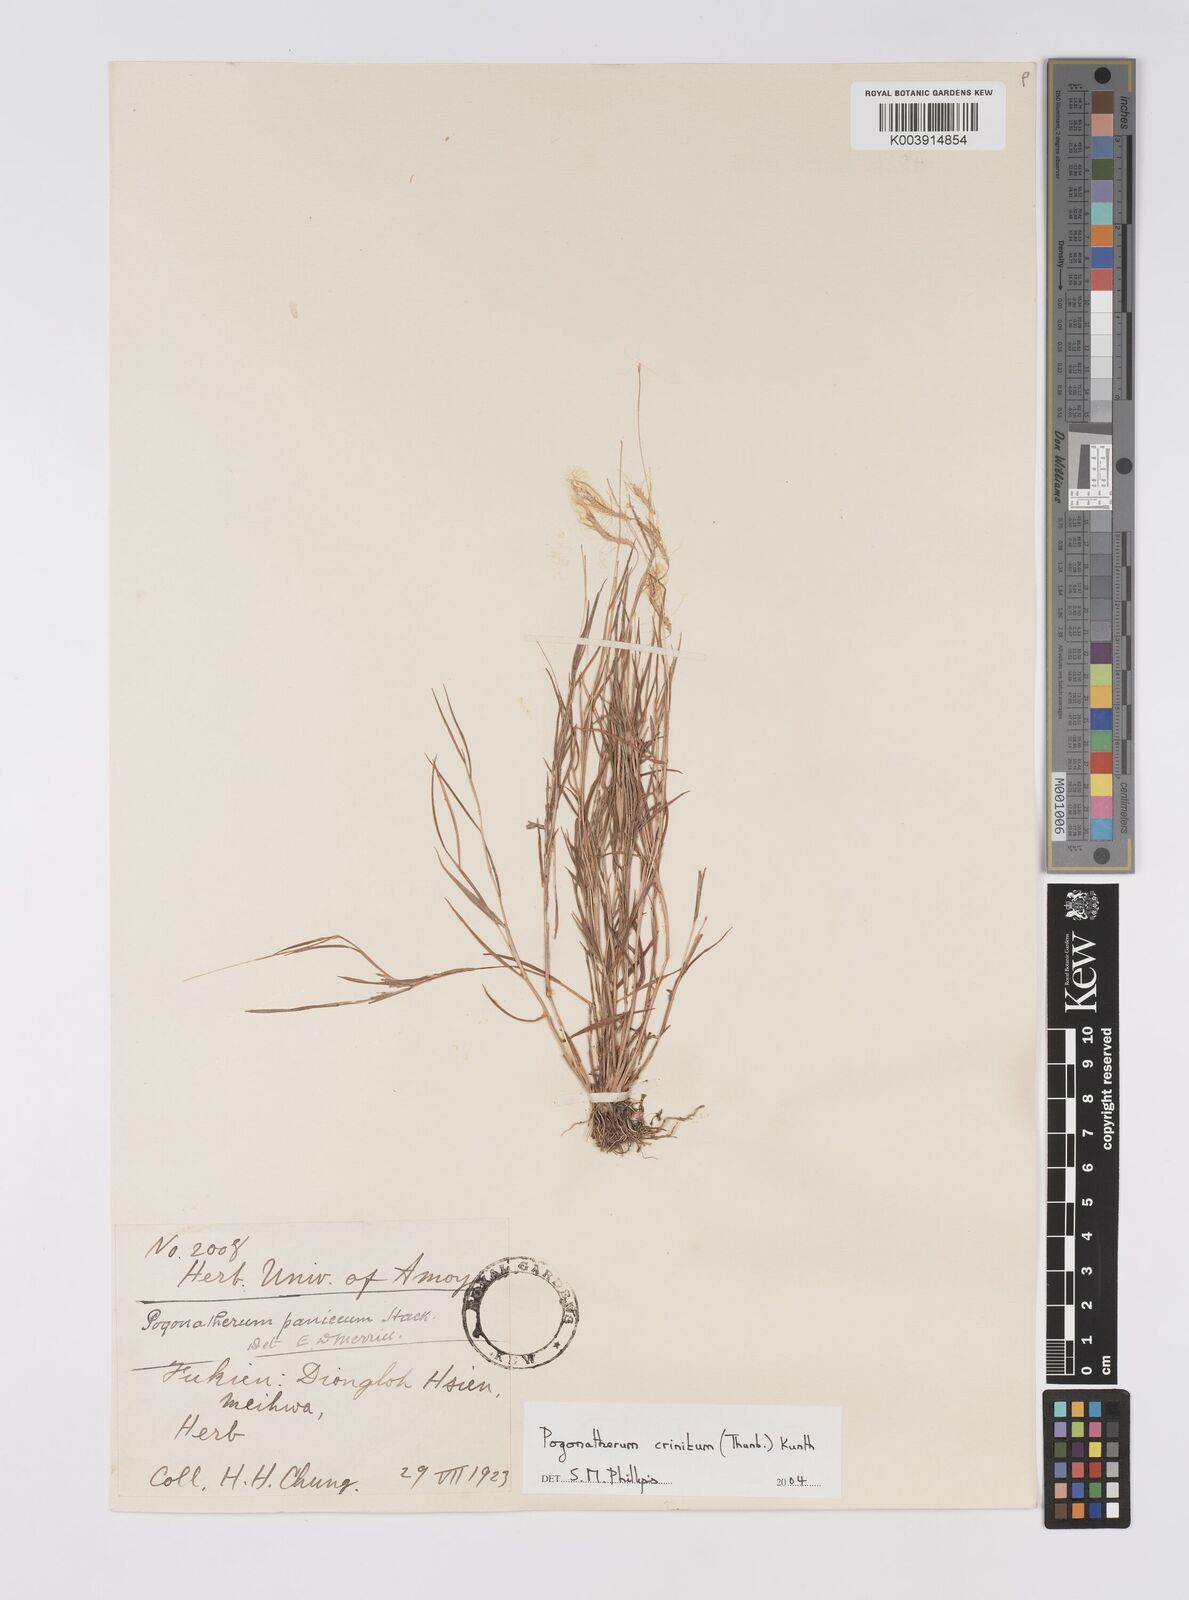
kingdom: Plantae
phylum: Tracheophyta
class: Liliopsida
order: Poales
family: Poaceae
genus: Pogonatherum
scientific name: Pogonatherum crinitum
